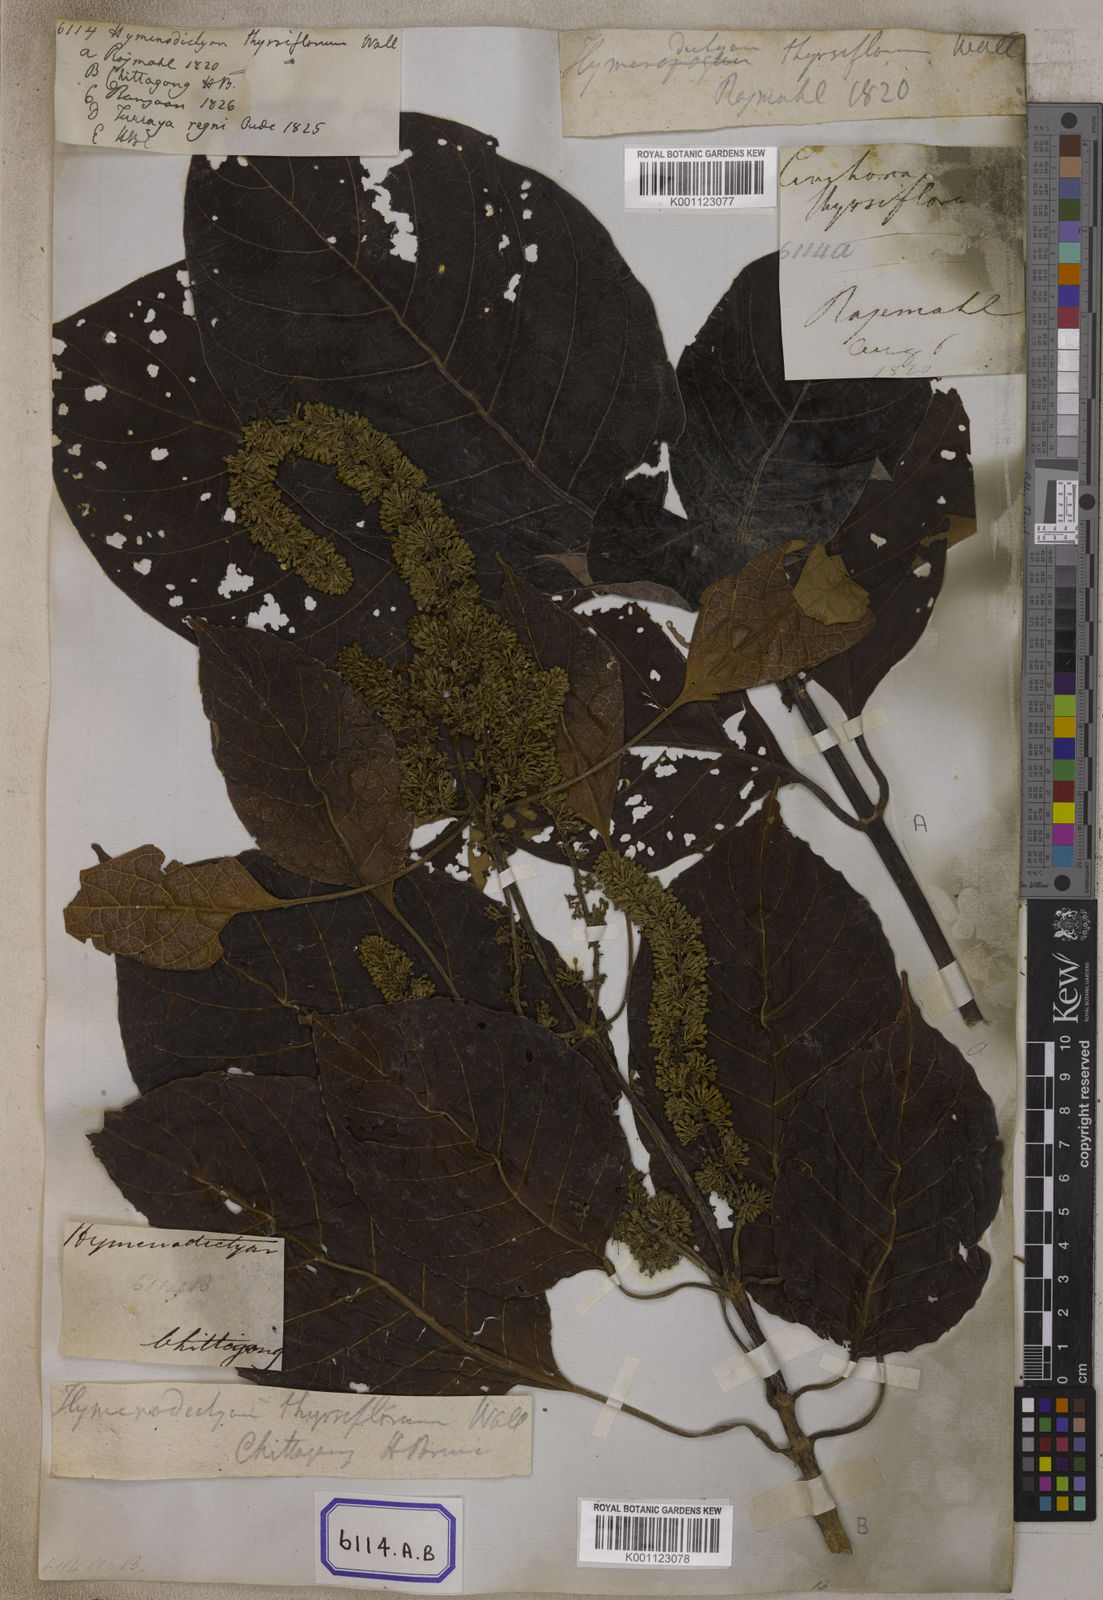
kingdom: Plantae
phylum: Tracheophyta
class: Magnoliopsida
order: Gentianales
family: Rubiaceae
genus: Hymenodictyon
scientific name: Hymenodictyon orixense
